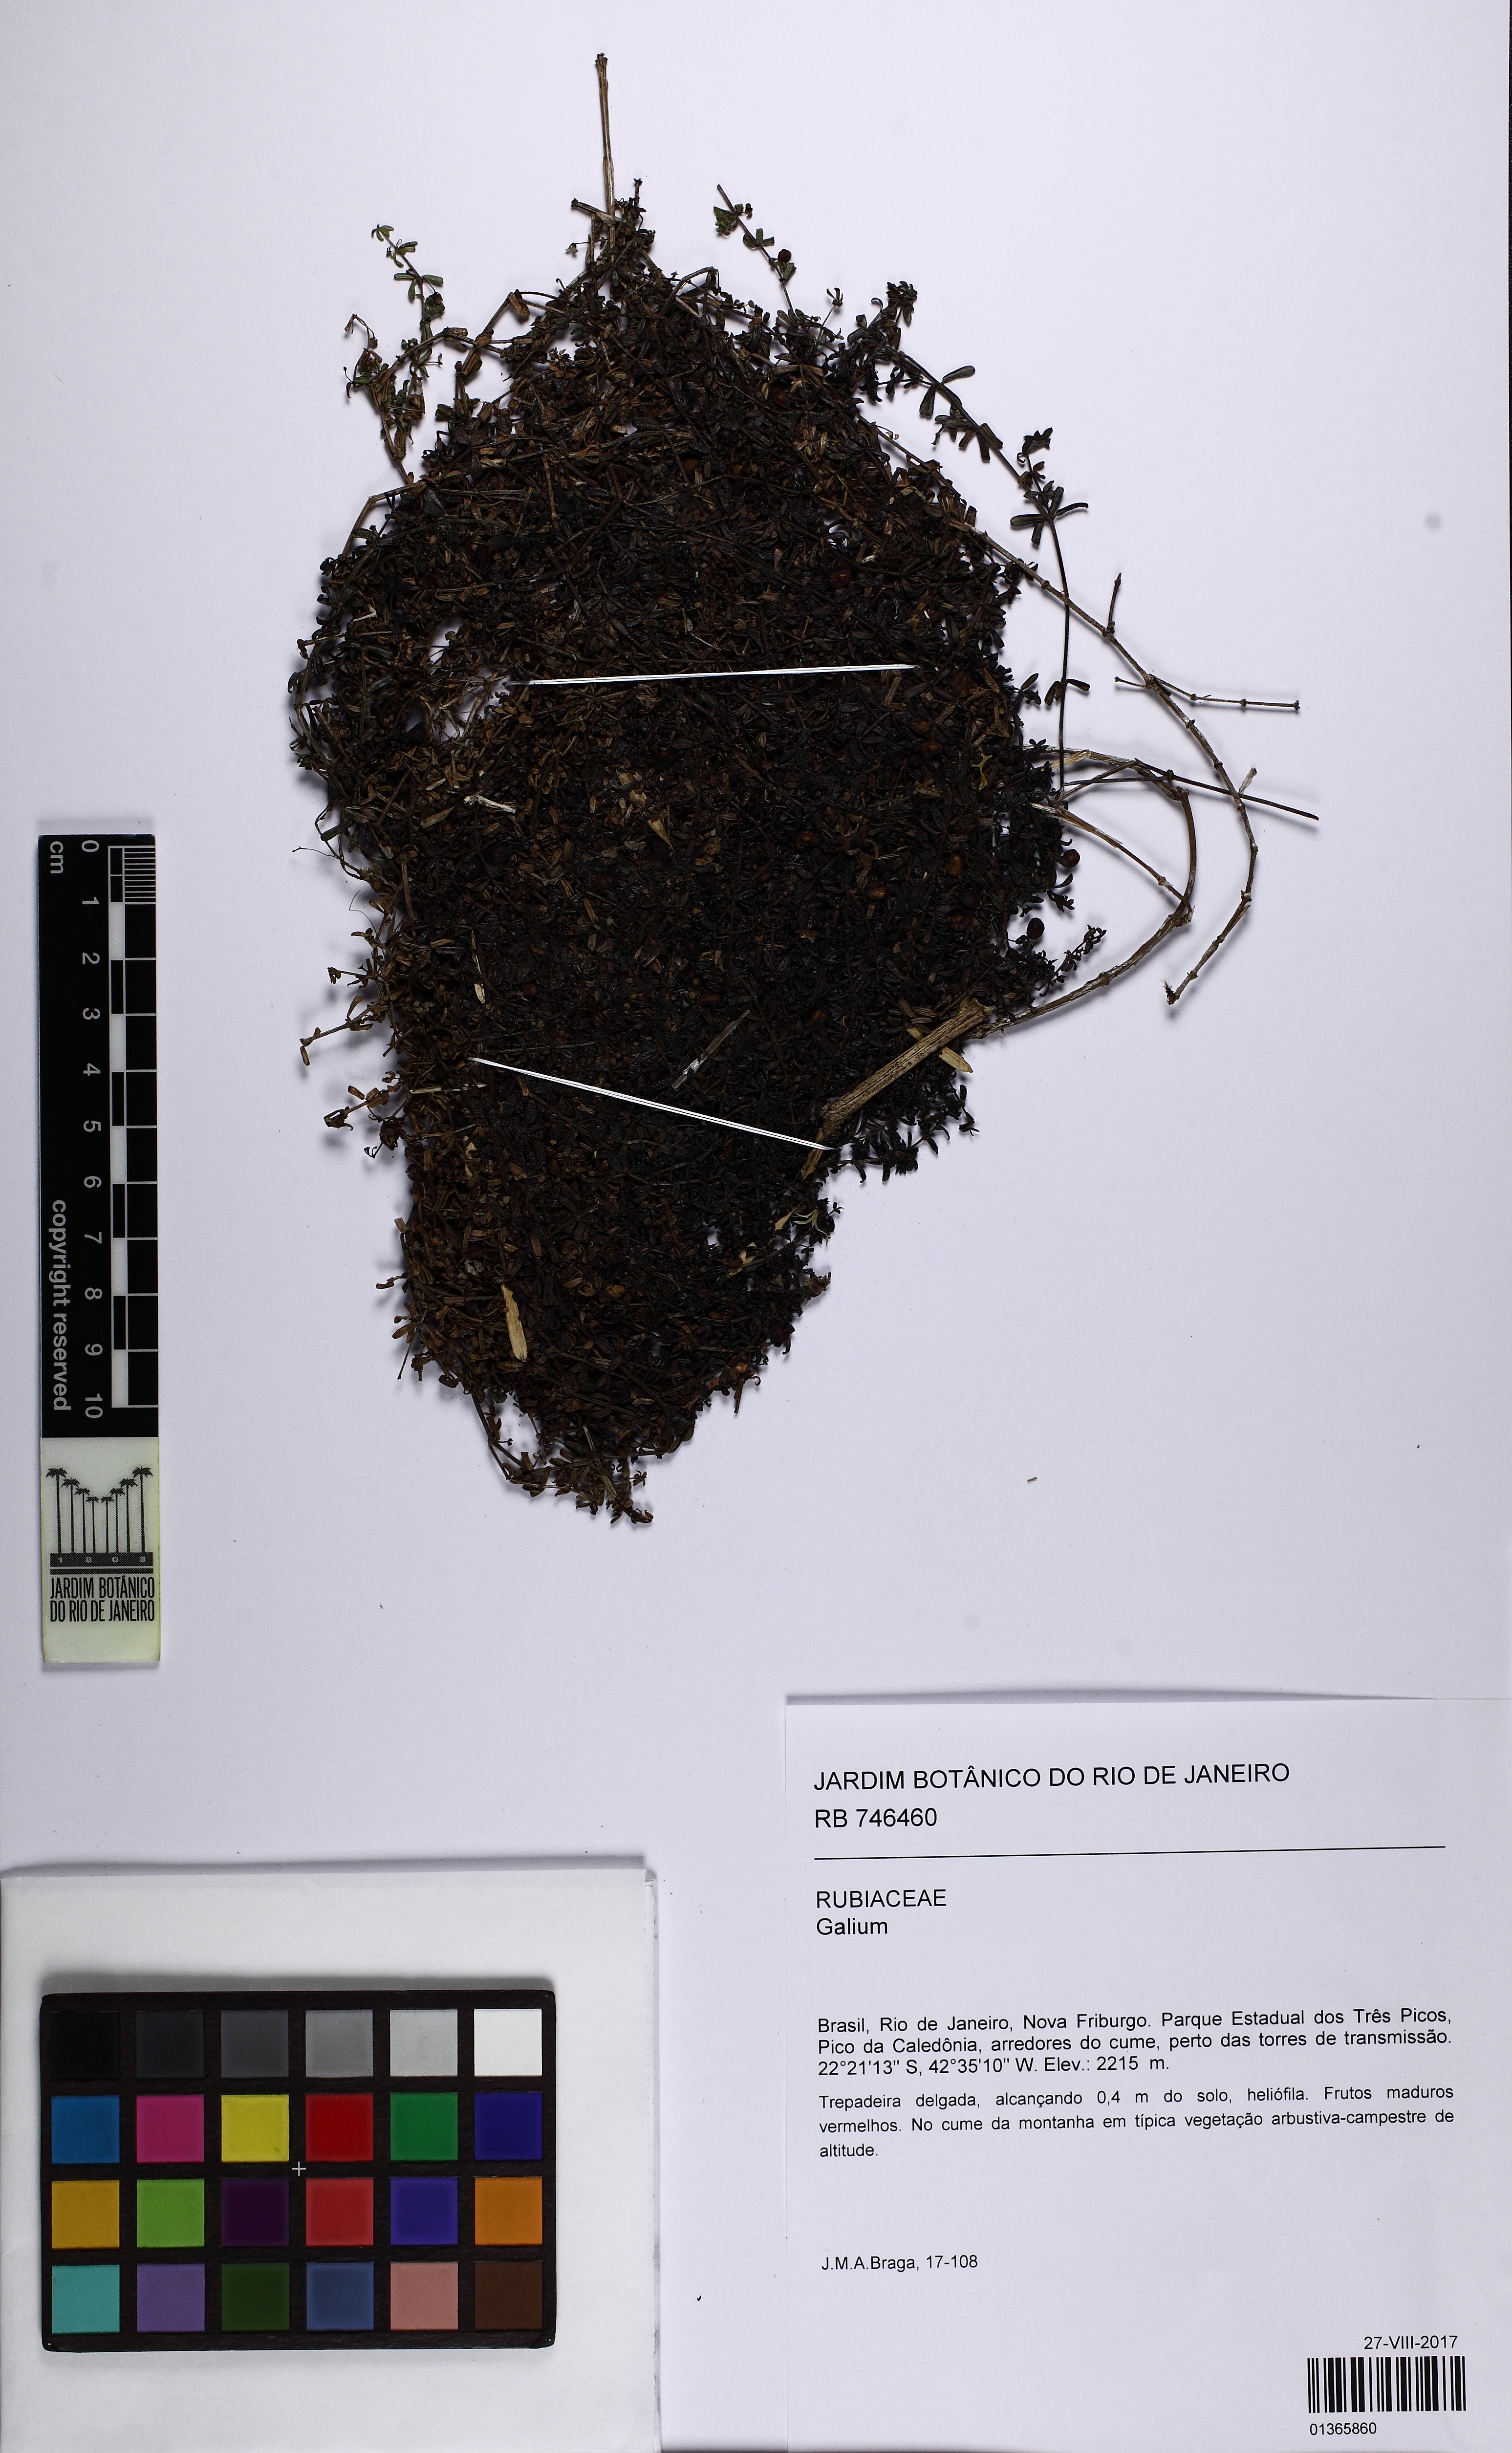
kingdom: Plantae
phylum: Tracheophyta
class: Magnoliopsida
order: Gentianales
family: Rubiaceae
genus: Galium
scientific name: Galium hypocarpium
